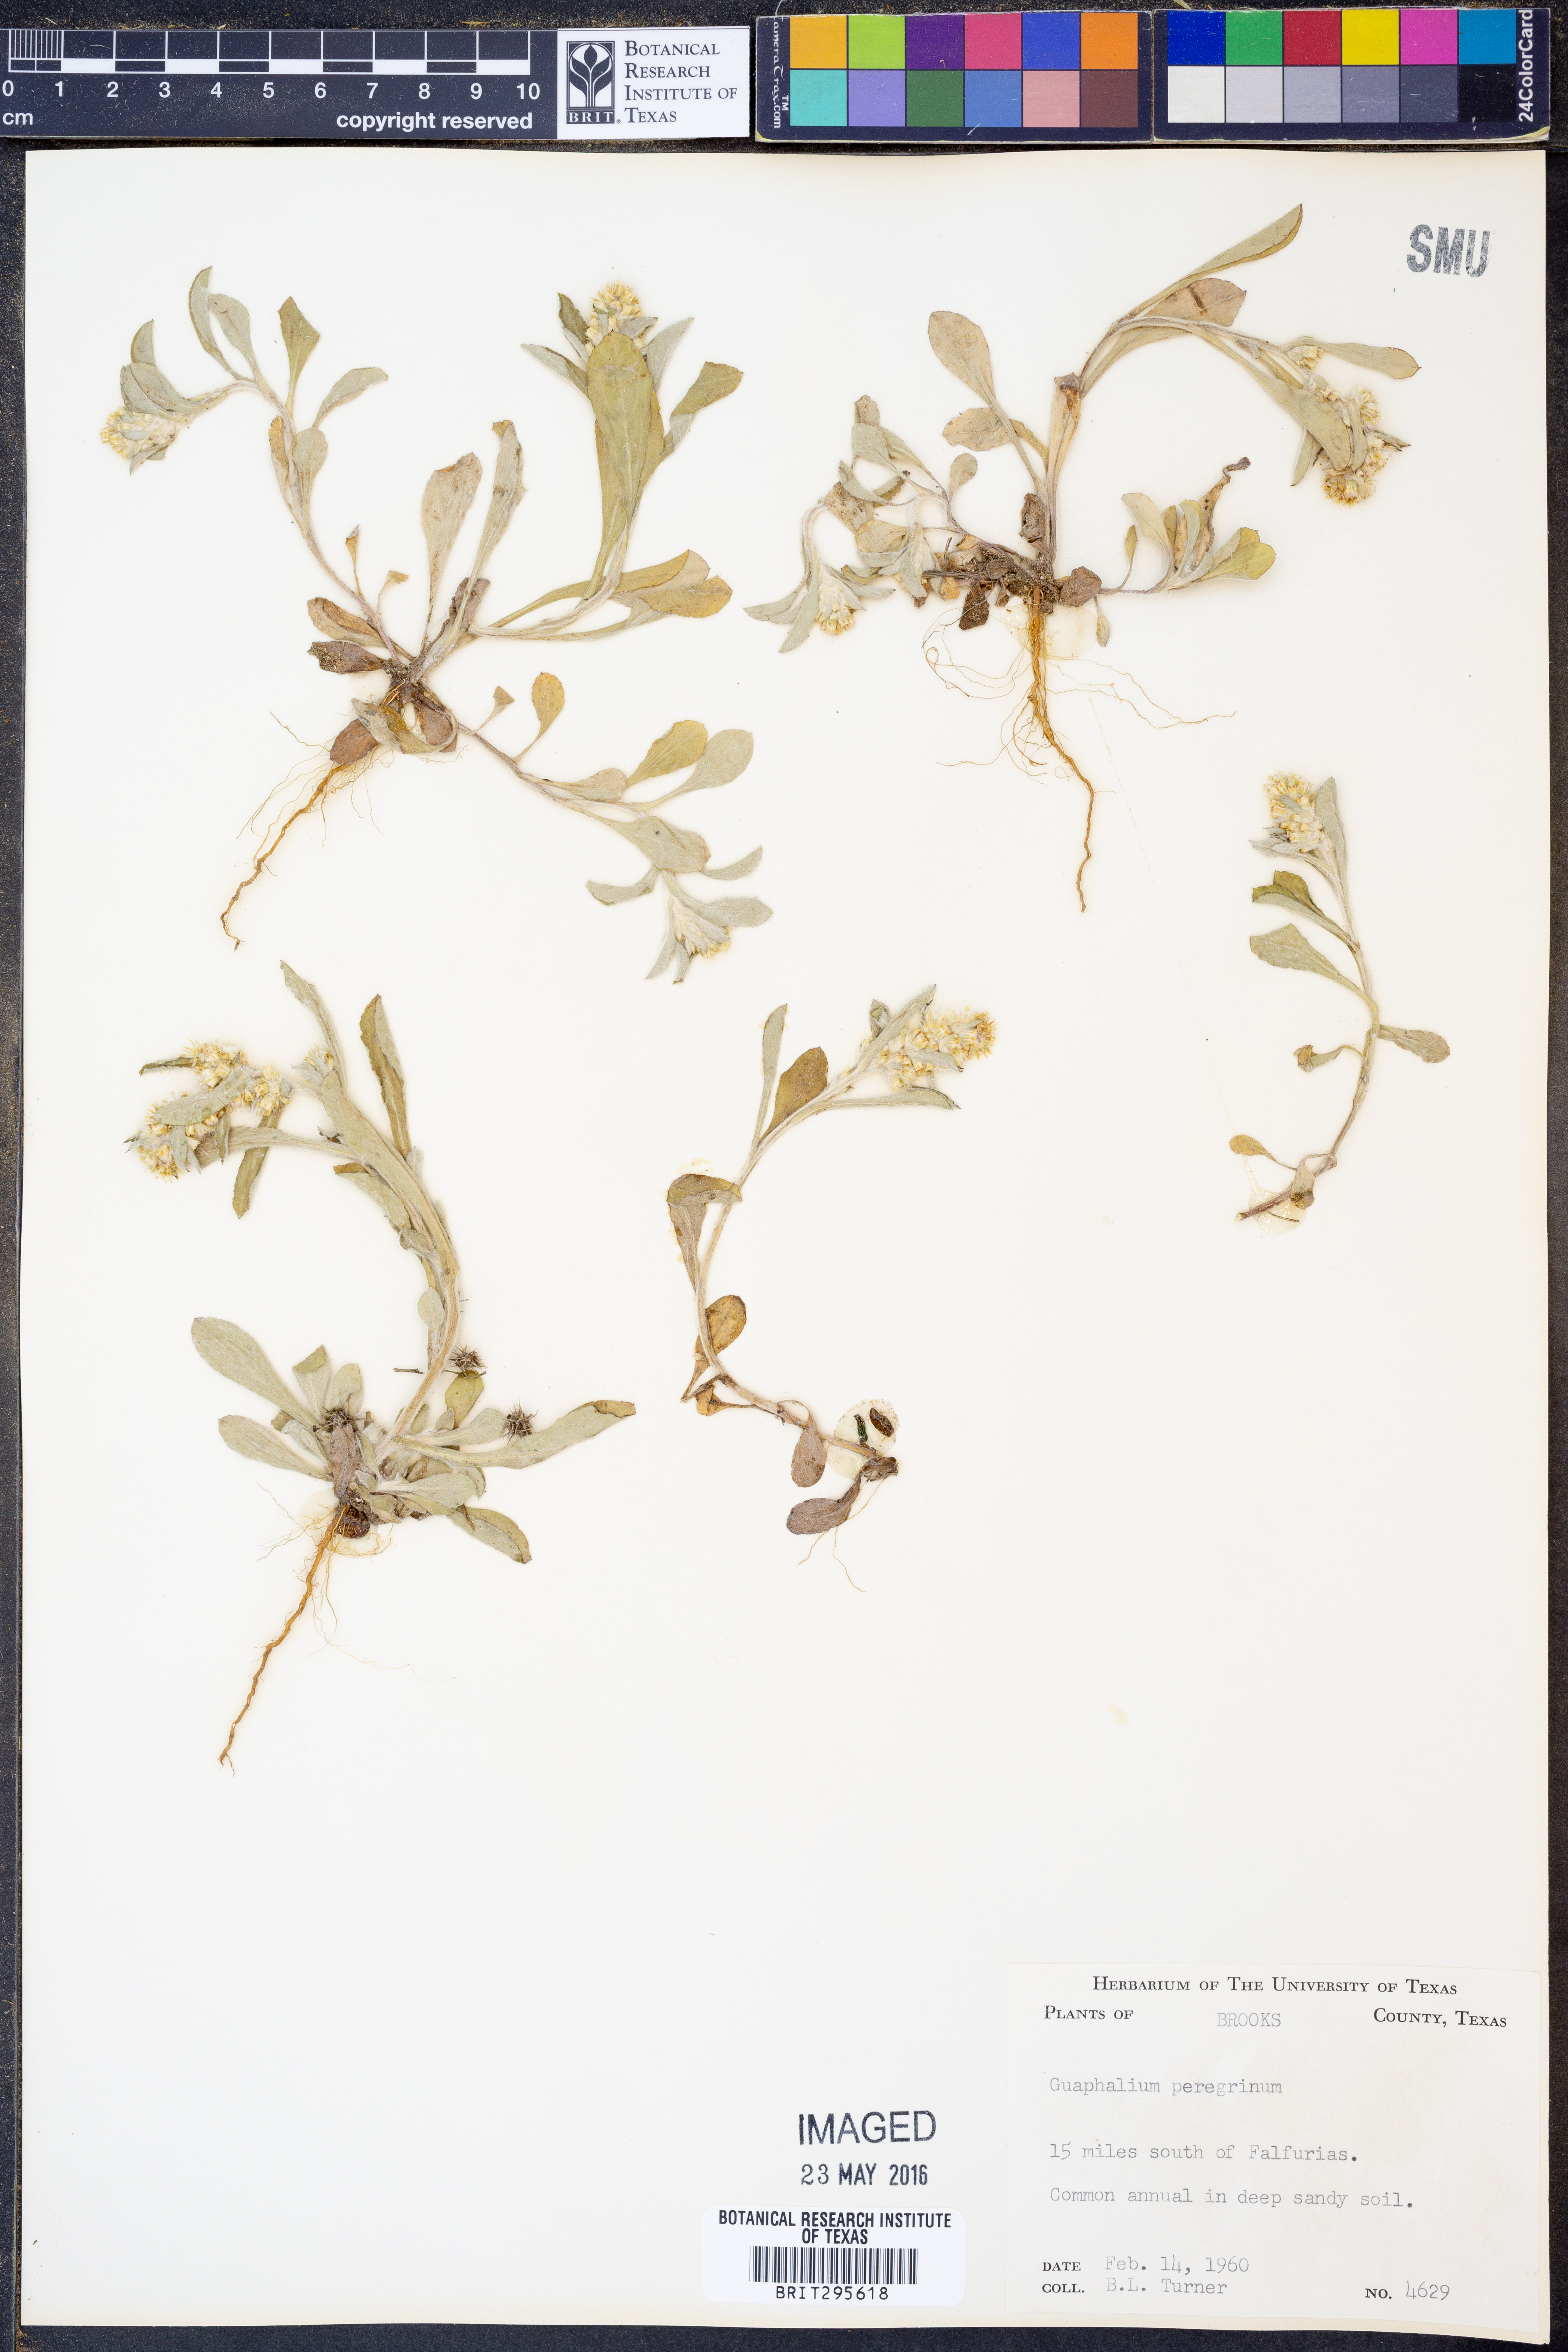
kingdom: Plantae
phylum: Tracheophyta
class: Magnoliopsida
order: Asterales
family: Asteraceae
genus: Gamochaeta
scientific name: Gamochaeta pensylvanica
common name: Pennsylvania everlasting
